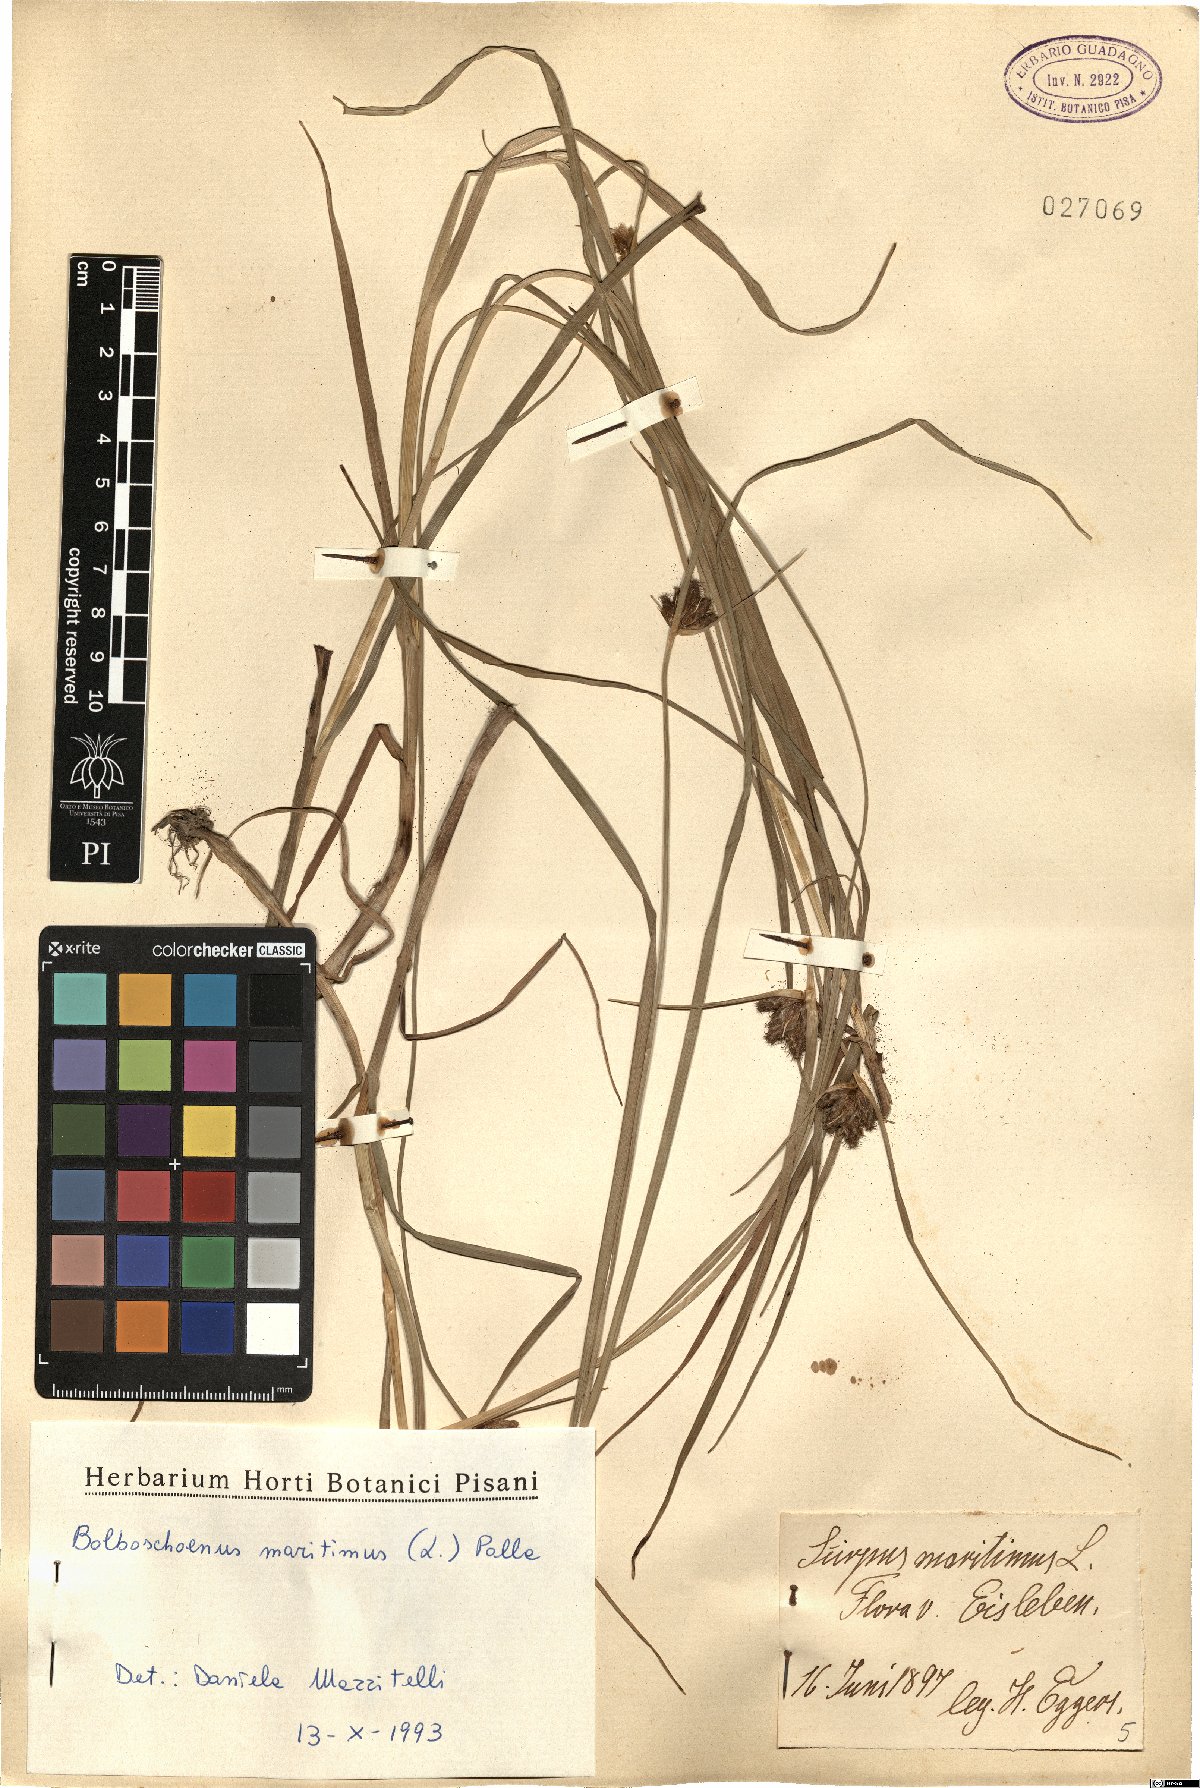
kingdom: Plantae
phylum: Tracheophyta
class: Liliopsida
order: Poales
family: Cyperaceae
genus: Bolboschoenus
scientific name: Bolboschoenus maritimus
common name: Sea club-rush
